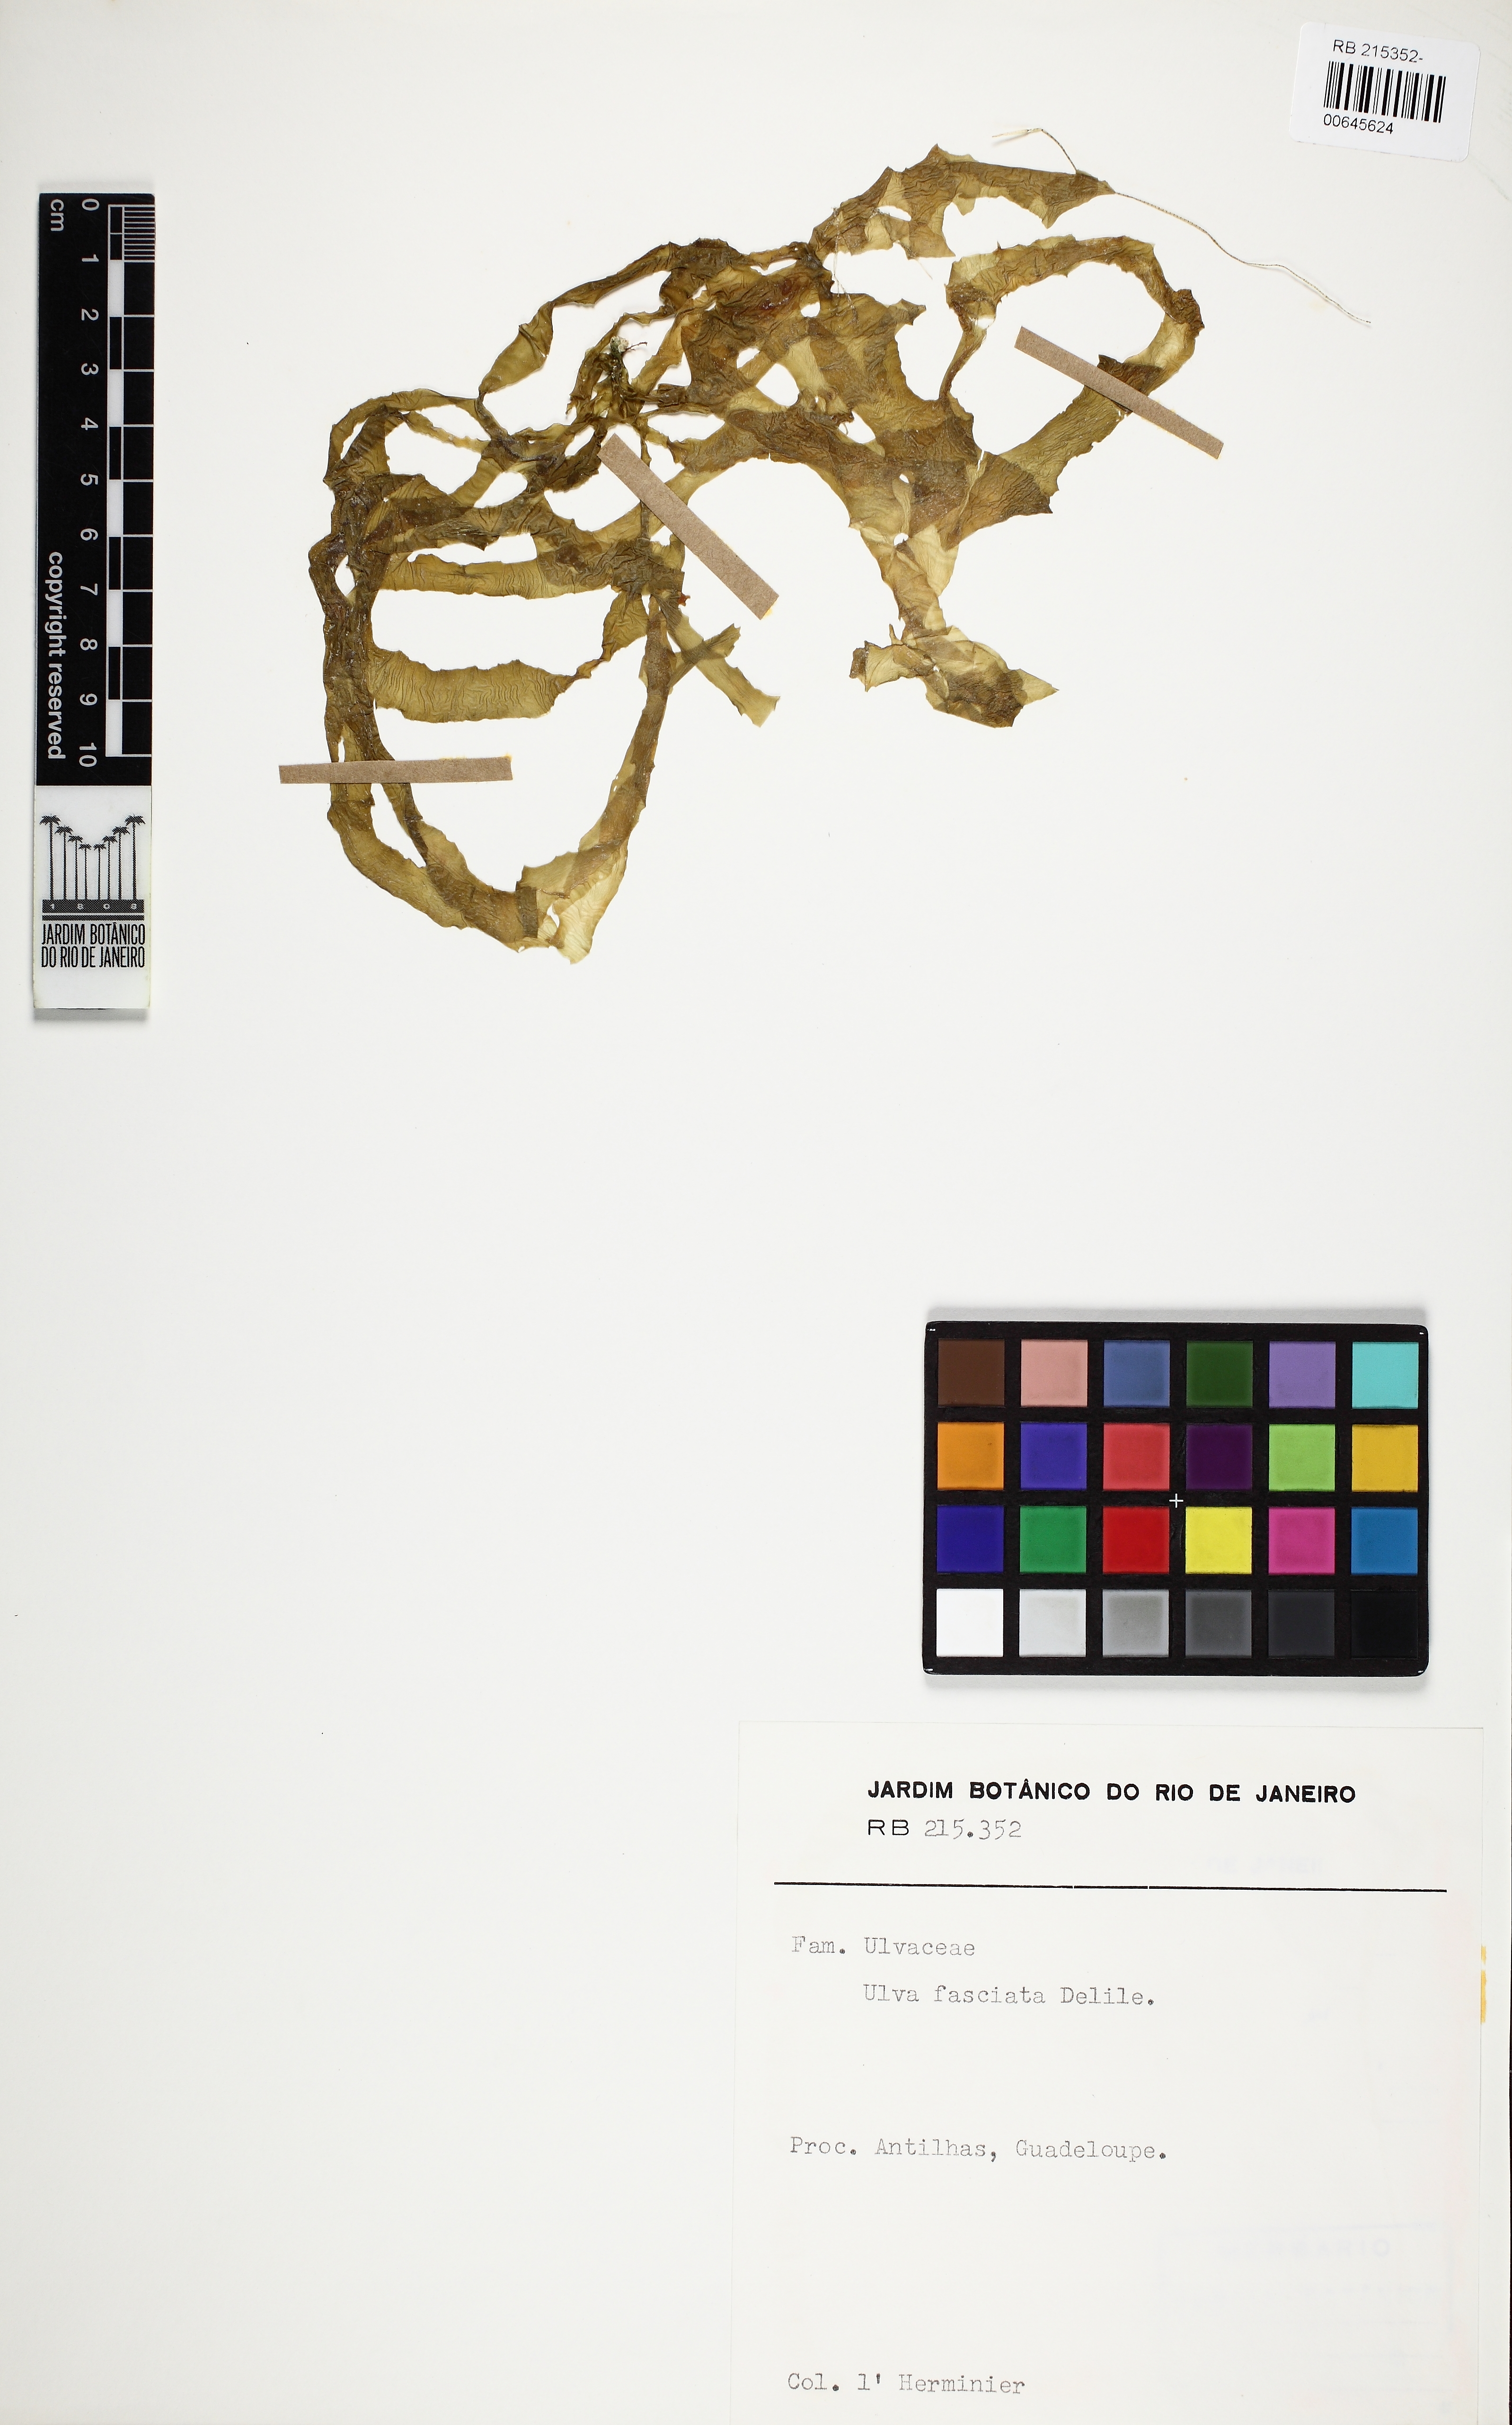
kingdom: Plantae
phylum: Chlorophyta
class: Ulvophyceae
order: Ulvales
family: Ulvaceae
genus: Ulva
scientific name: Ulva lactuca
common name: Sea lettuce
